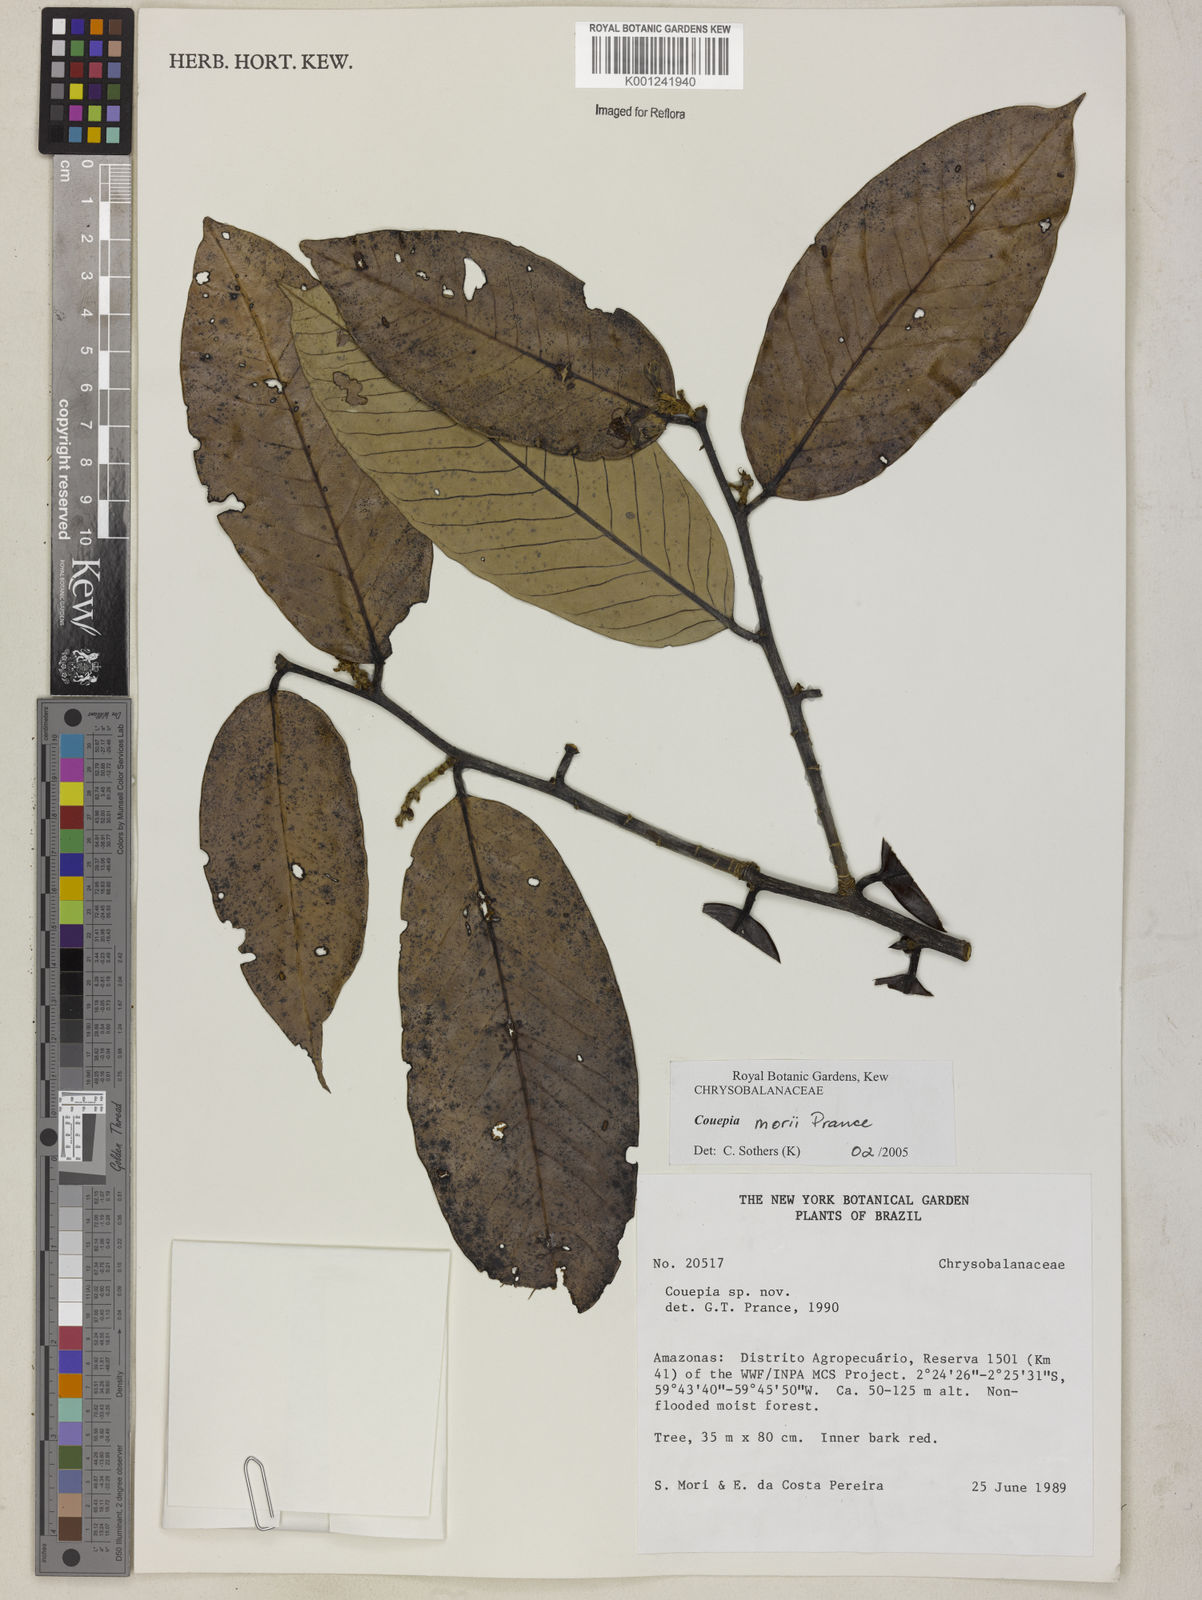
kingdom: Plantae
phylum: Tracheophyta
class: Magnoliopsida
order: Malpighiales
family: Chrysobalanaceae
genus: Couepia
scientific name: Couepia morii
